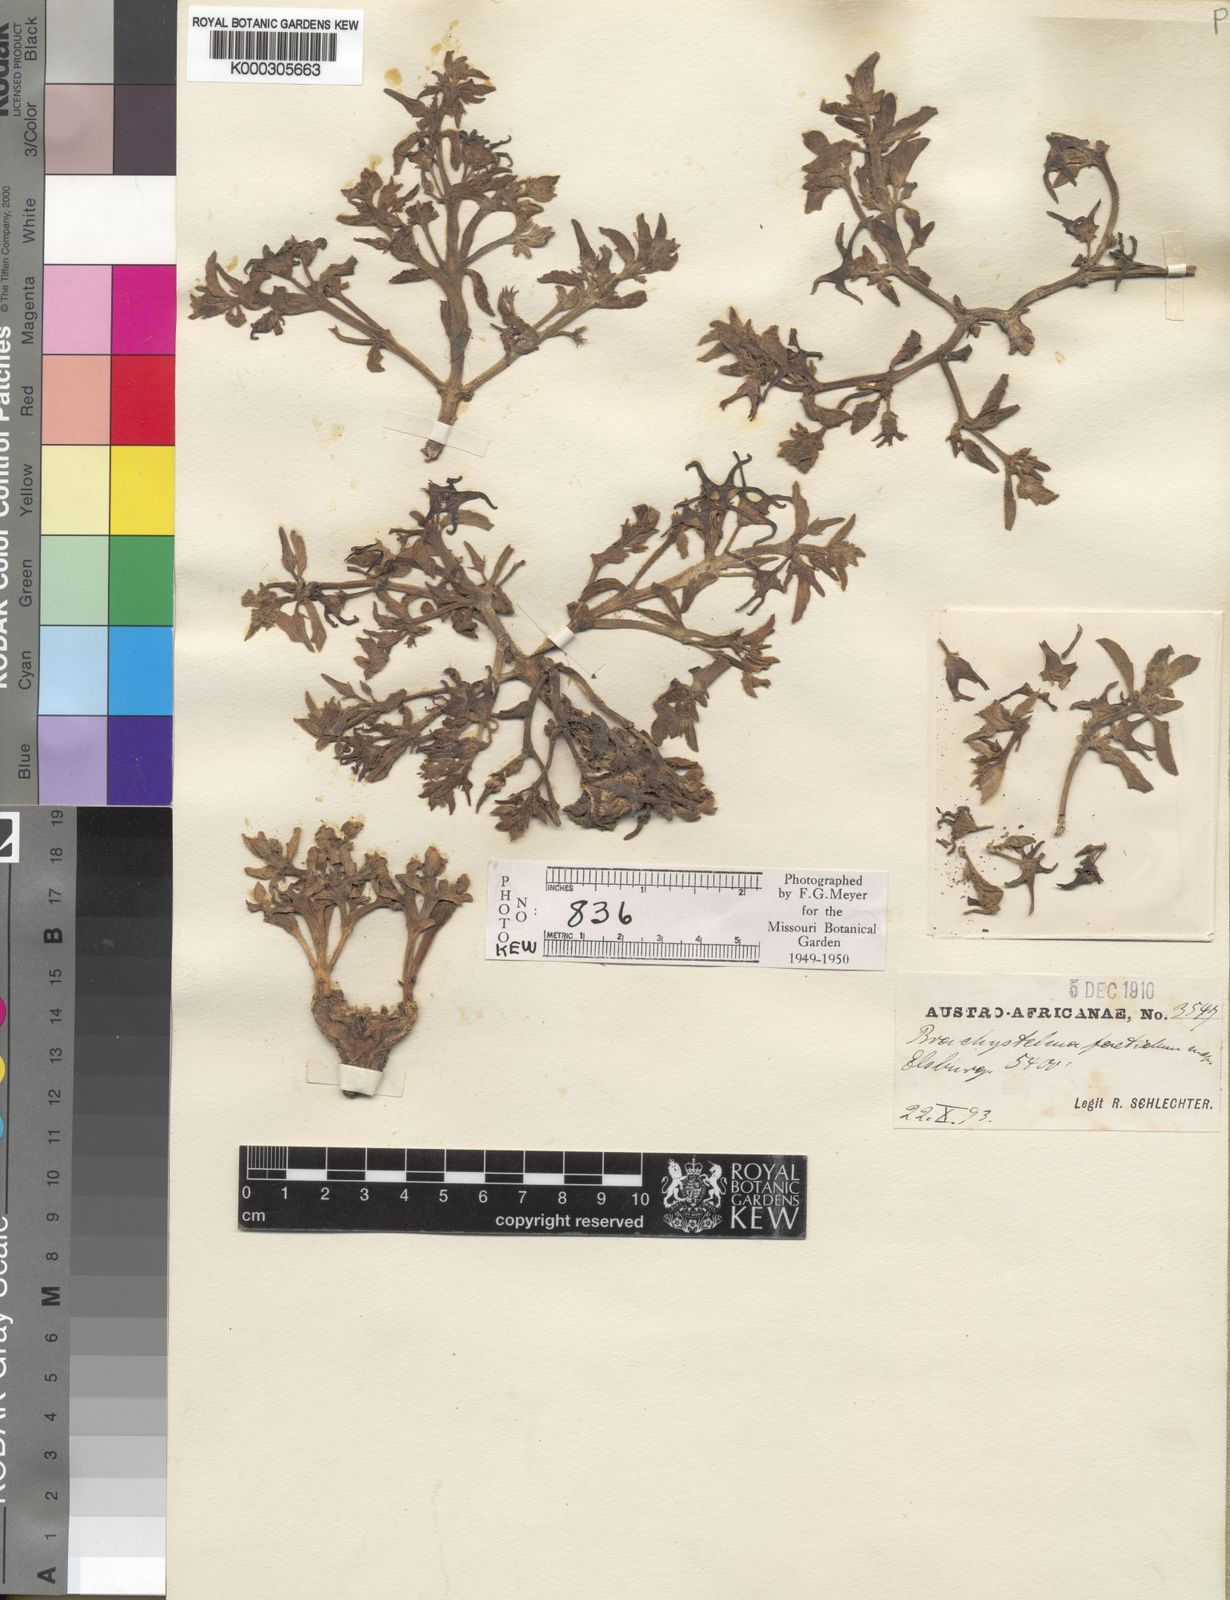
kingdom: Plantae
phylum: Tracheophyta
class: Magnoliopsida
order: Gentianales
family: Apocynaceae
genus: Ceropegia
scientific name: Ceropegia rehmannii
